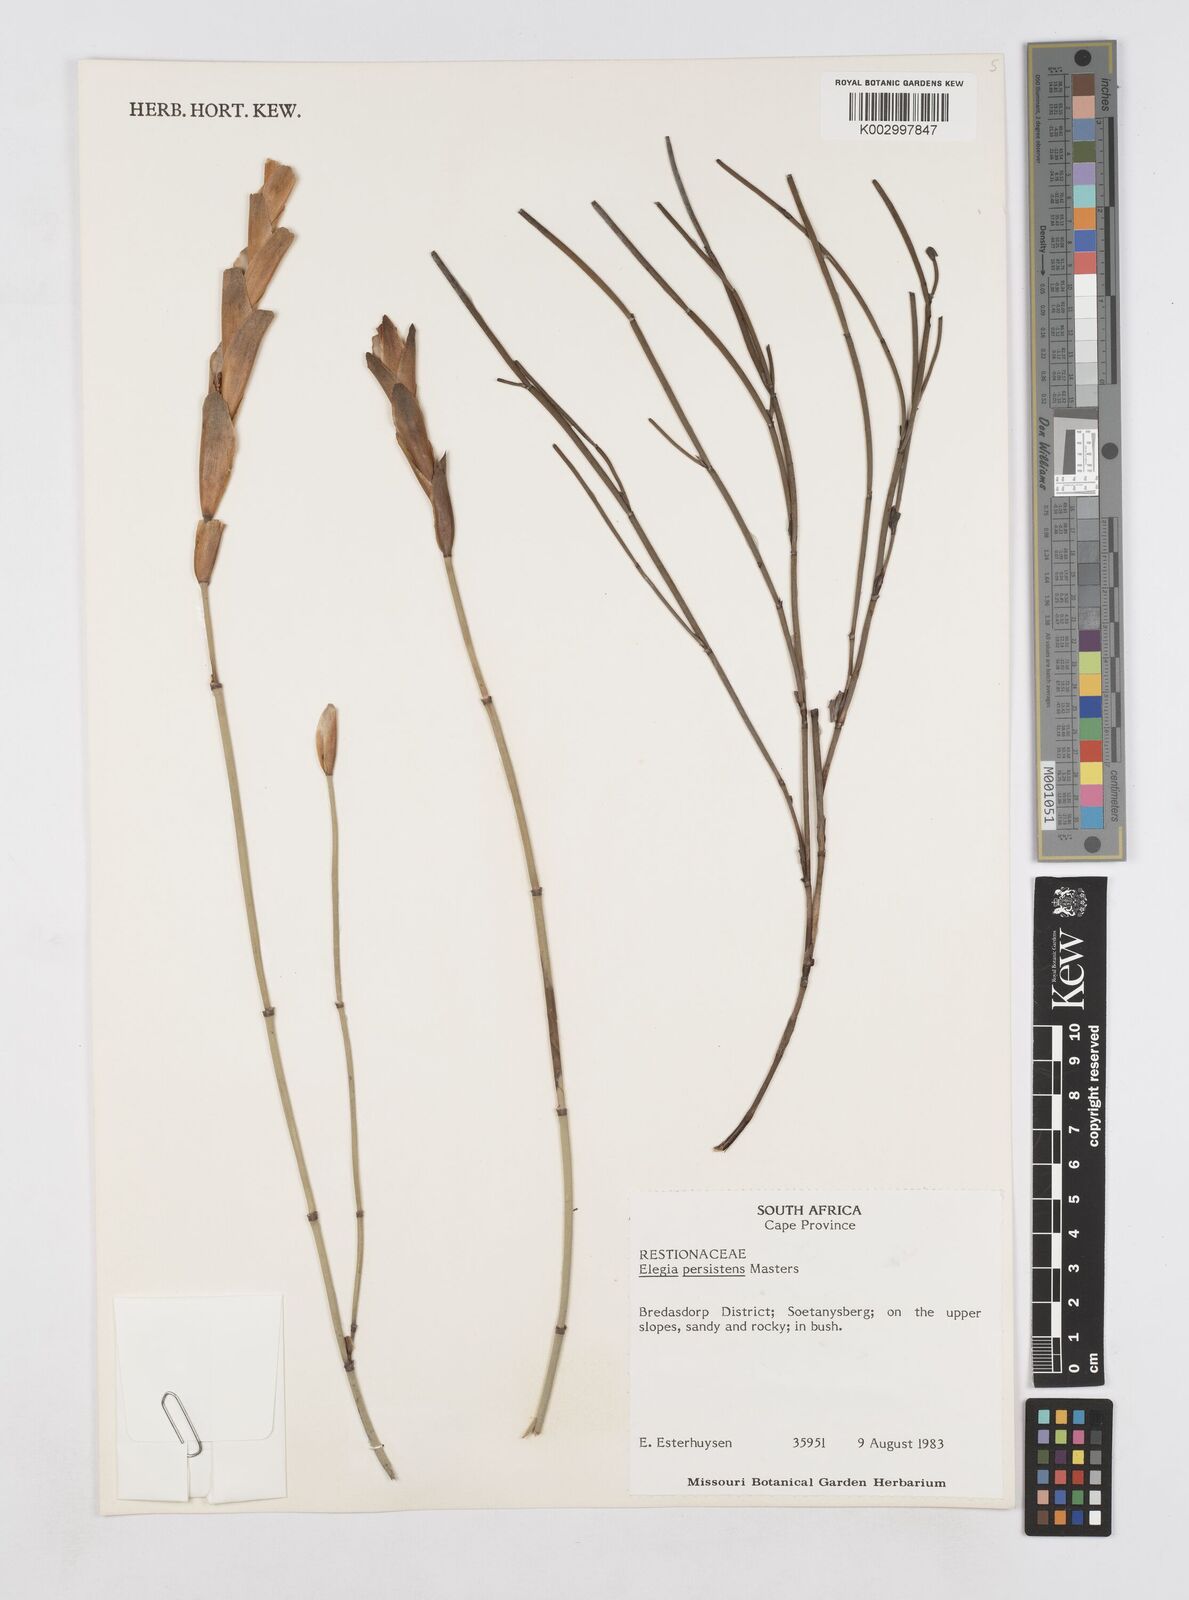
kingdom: Plantae
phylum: Tracheophyta
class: Liliopsida
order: Poales
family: Restionaceae
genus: Elegia
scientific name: Elegia persistens
